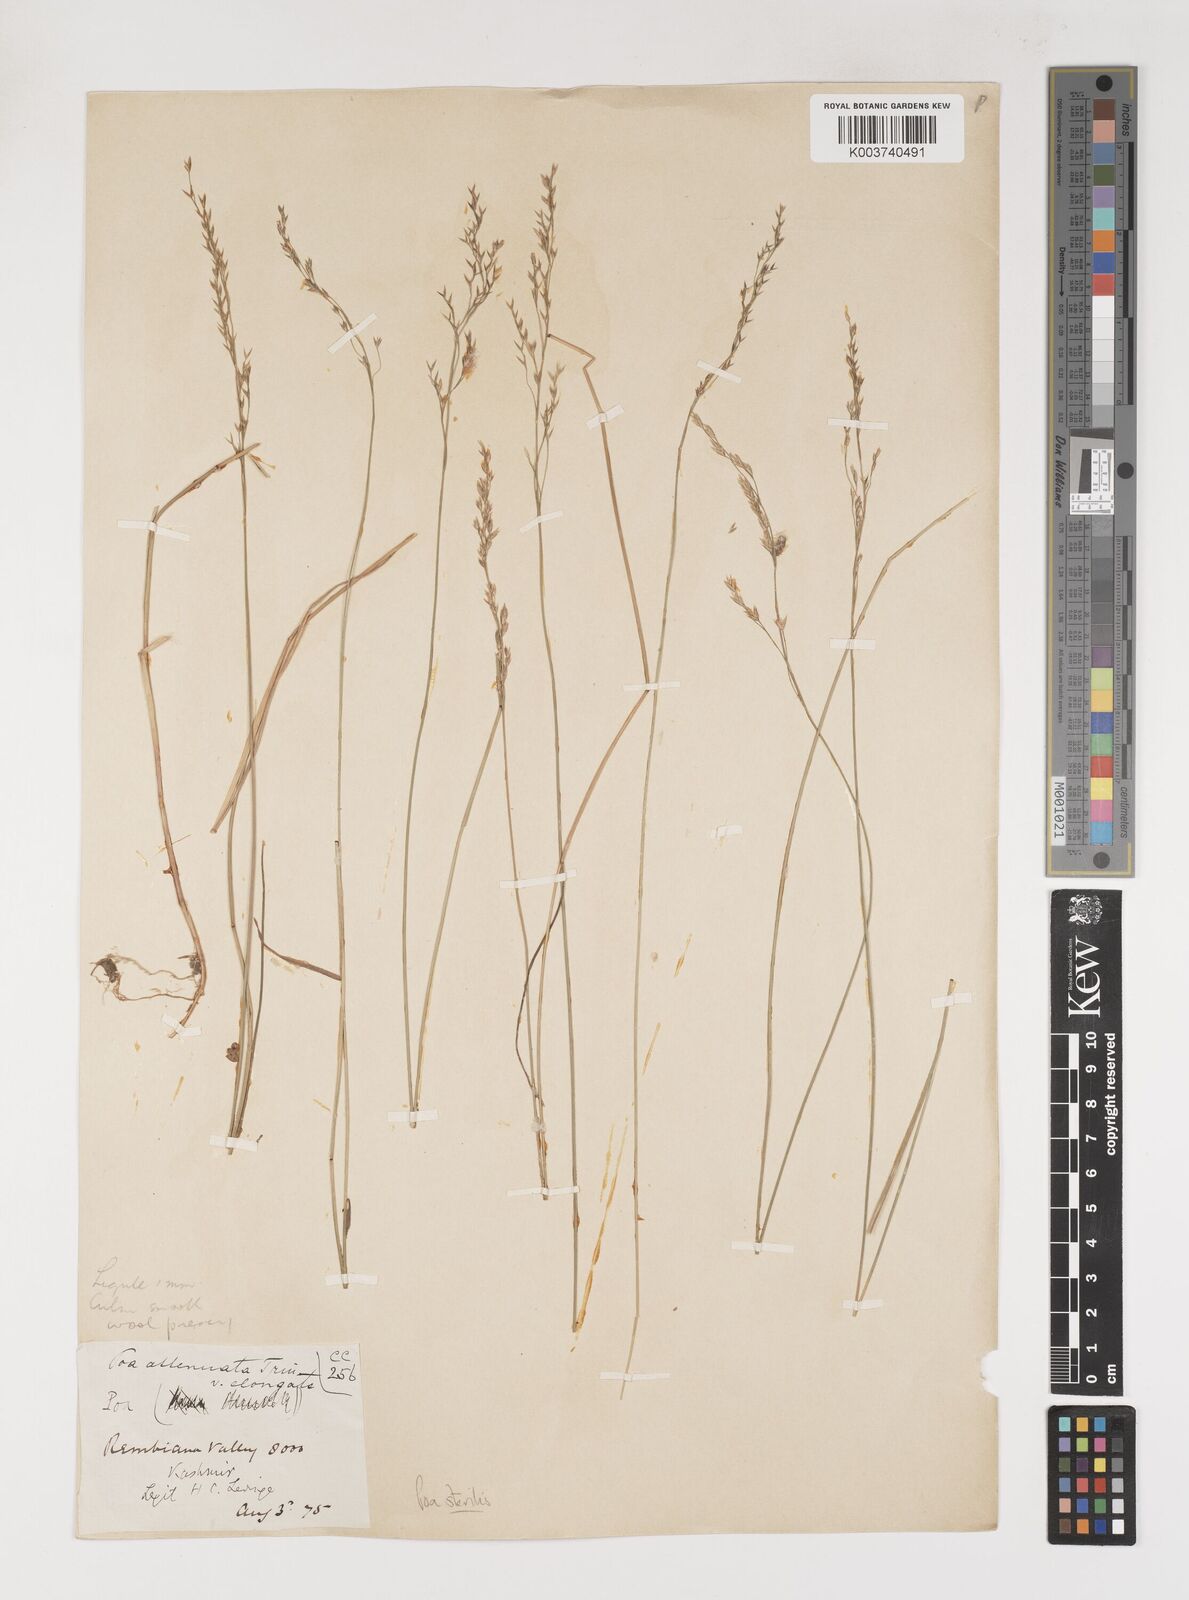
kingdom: Plantae
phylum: Tracheophyta
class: Liliopsida
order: Poales
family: Poaceae
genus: Poa
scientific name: Poa sterilis
